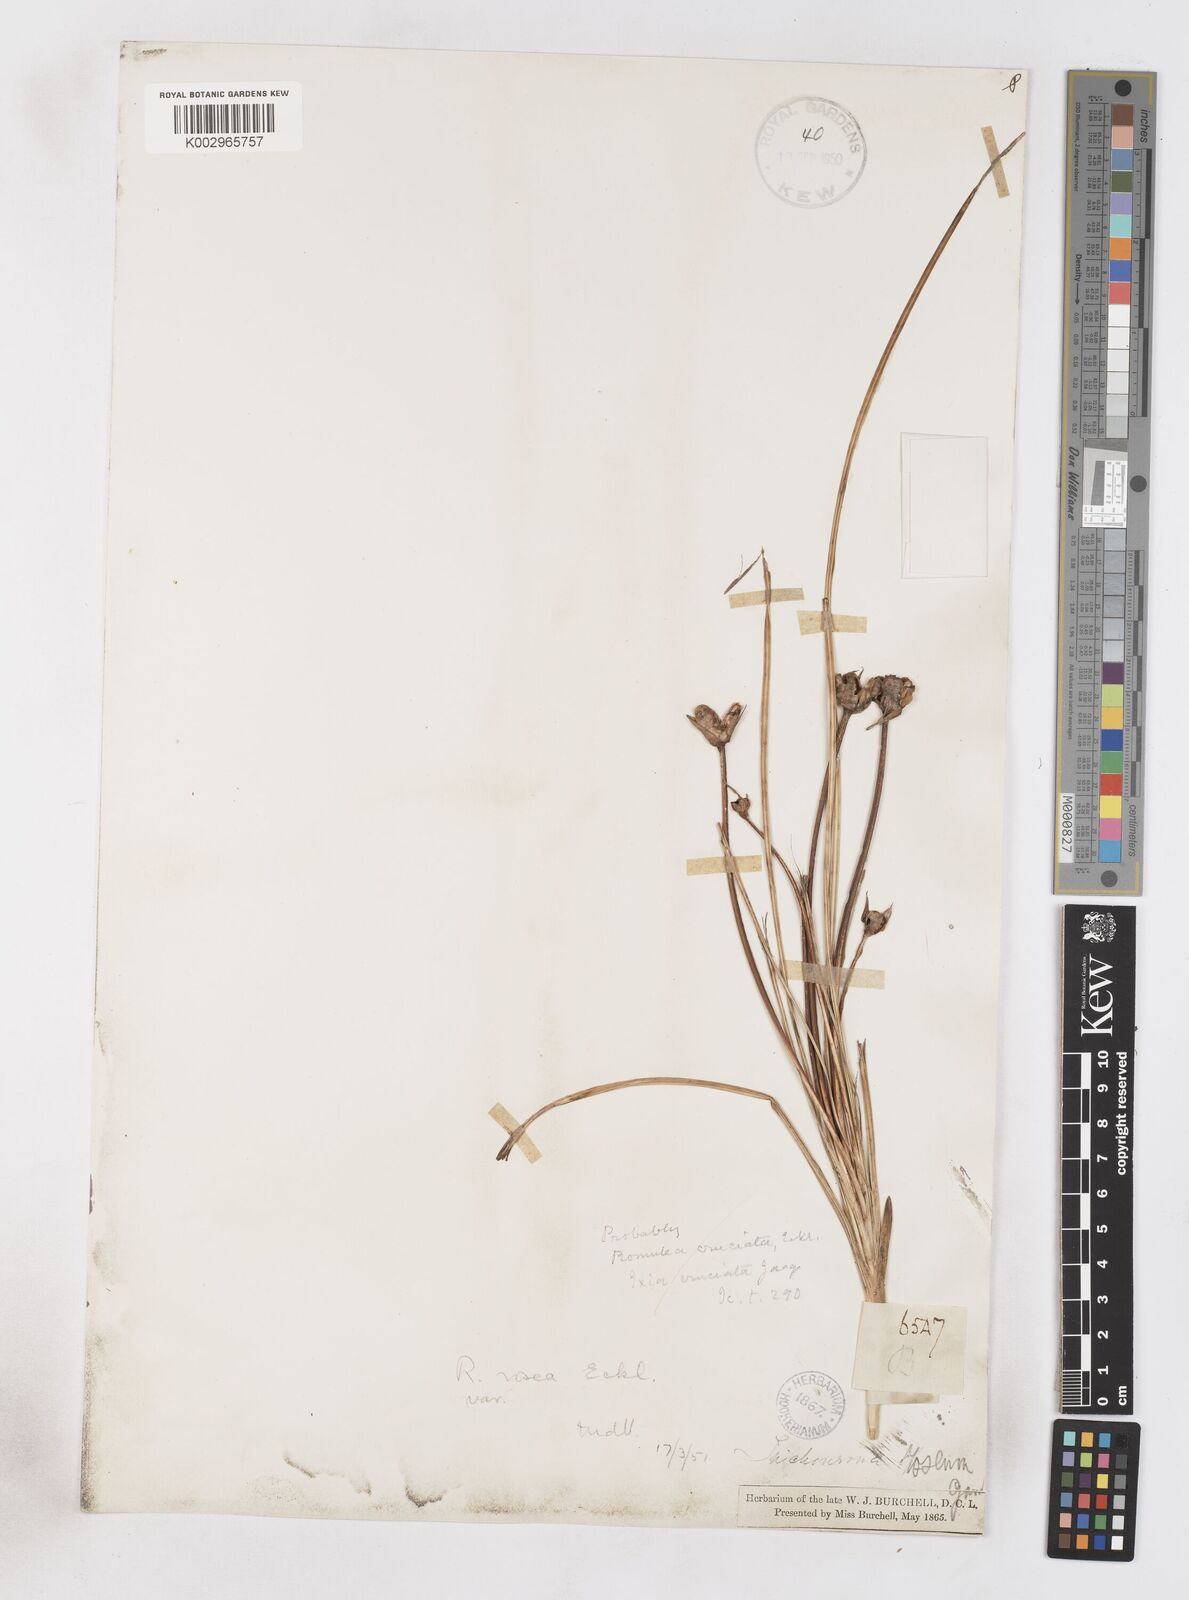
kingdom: Plantae
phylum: Tracheophyta
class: Liliopsida
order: Asparagales
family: Iridaceae
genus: Romulea
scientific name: Romulea rosea
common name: Oniongrass
